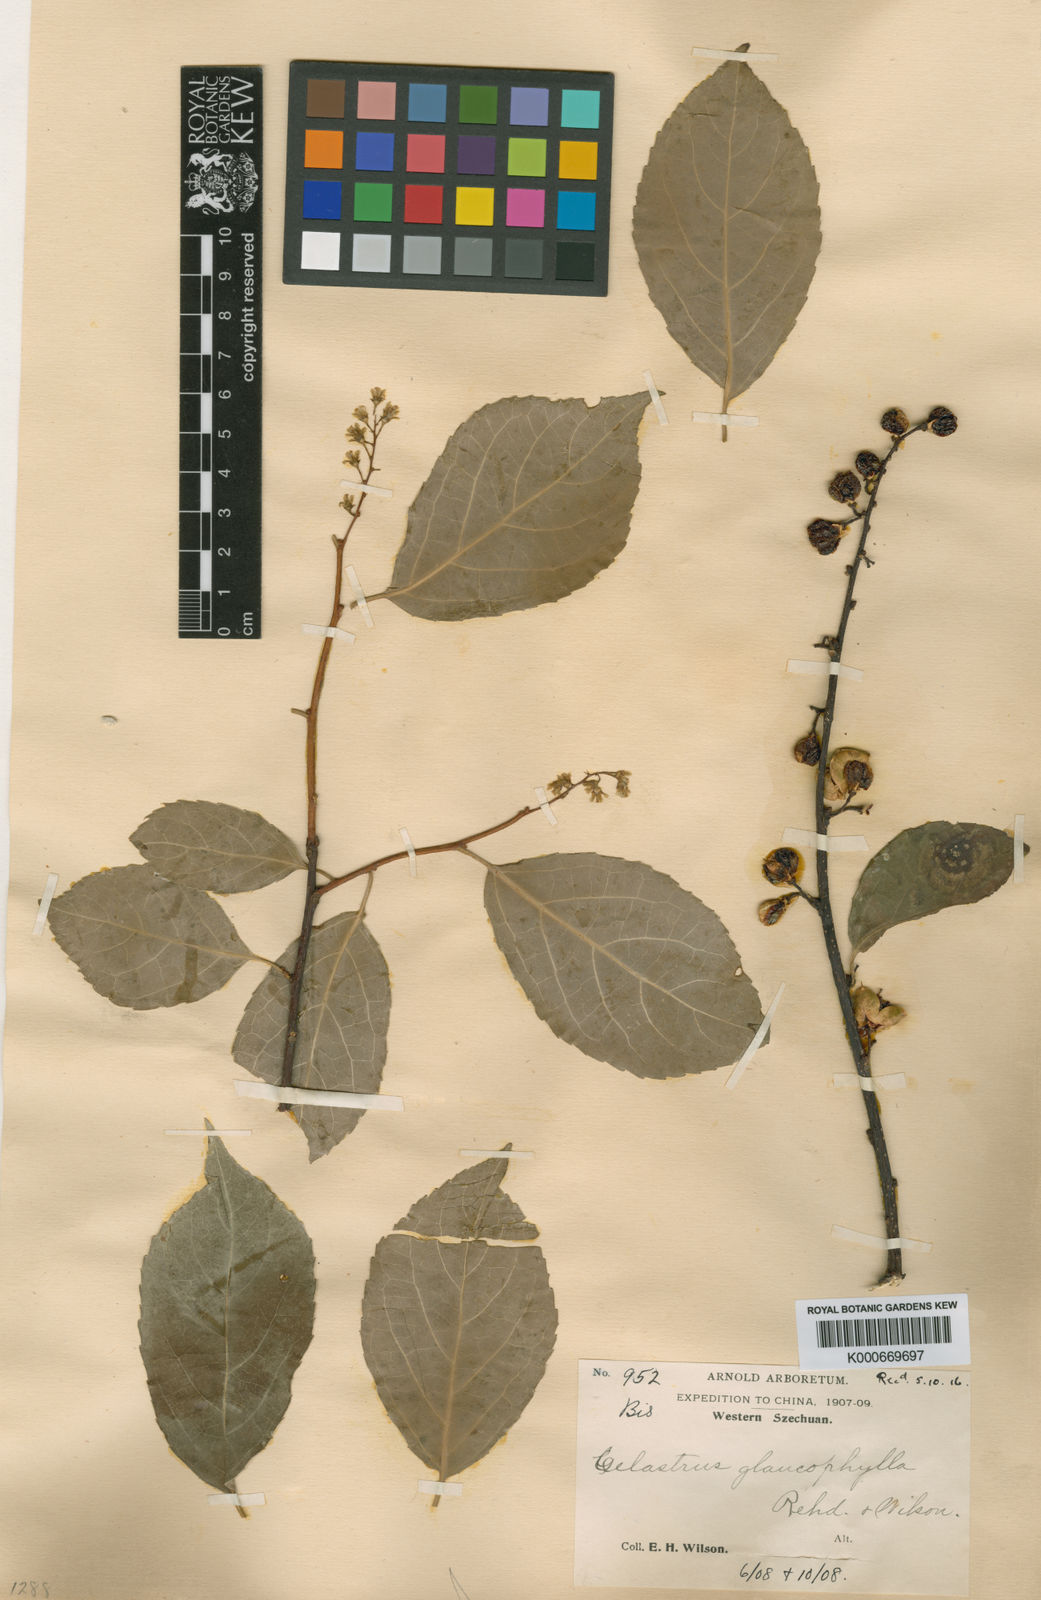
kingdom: Plantae
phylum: Tracheophyta
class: Magnoliopsida
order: Celastrales
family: Celastraceae
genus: Celastrus
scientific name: Celastrus hookeri
